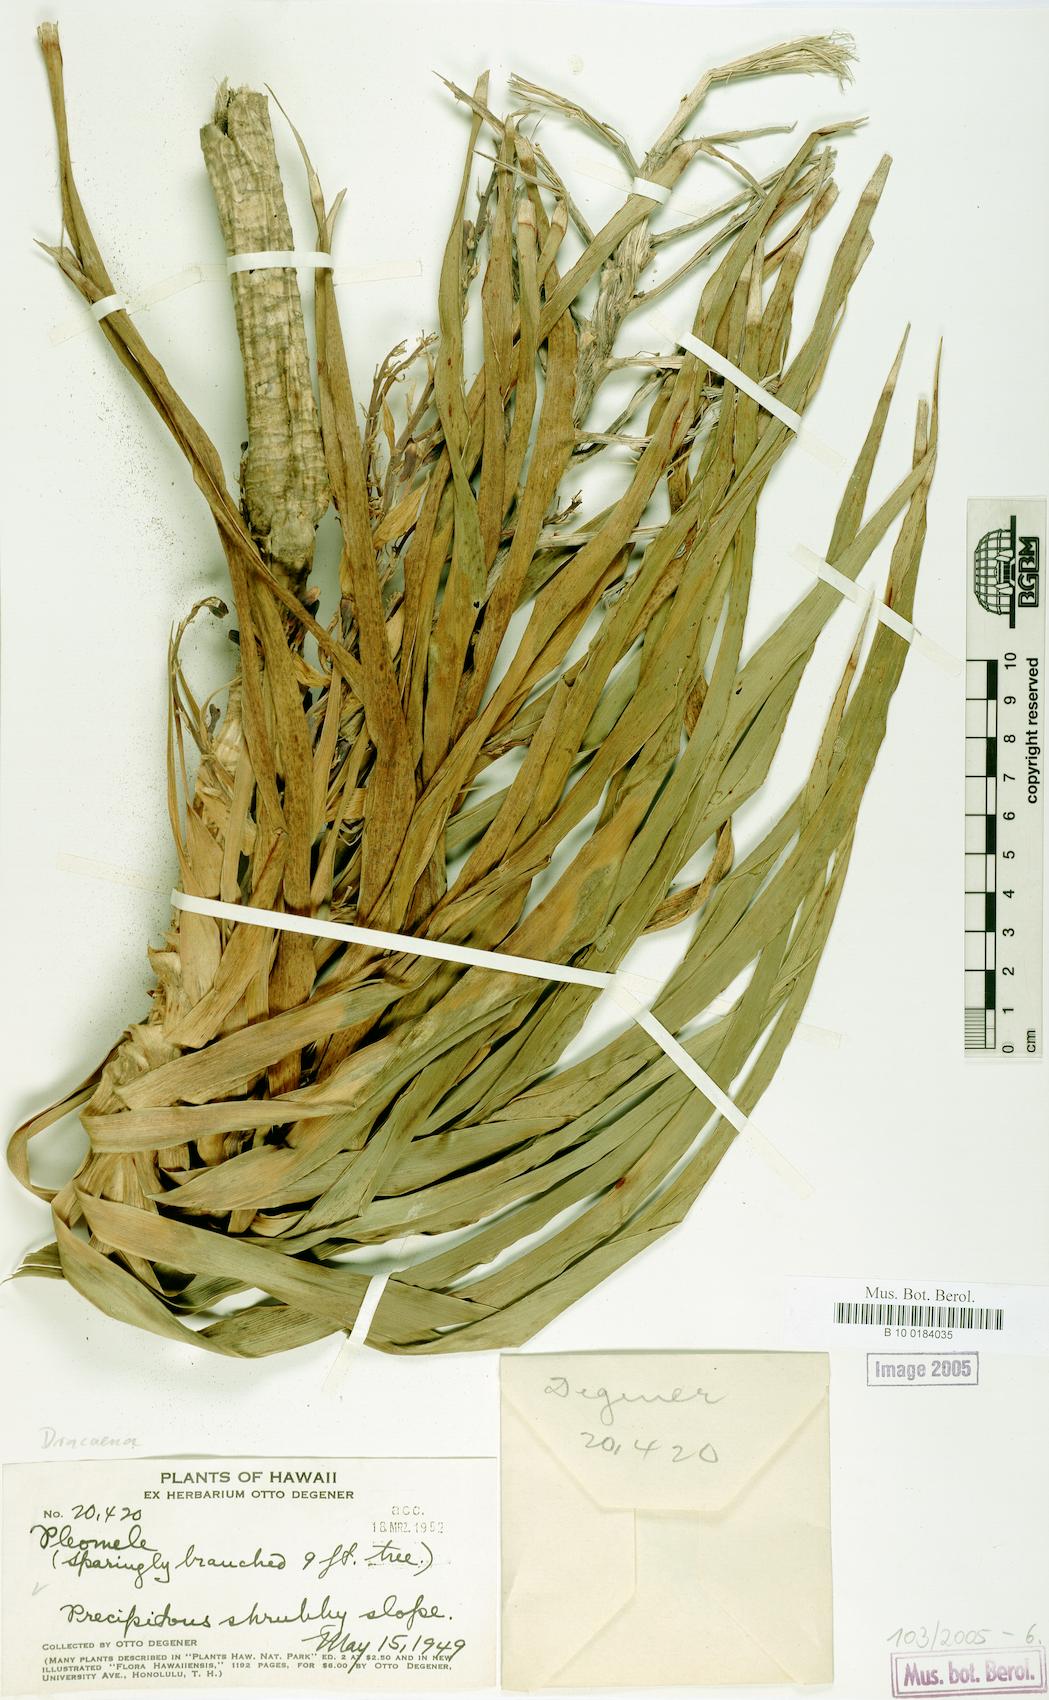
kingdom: Plantae
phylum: Tracheophyta
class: Liliopsida
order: Asparagales
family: Asparagaceae
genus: Dracaena
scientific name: Dracaena
